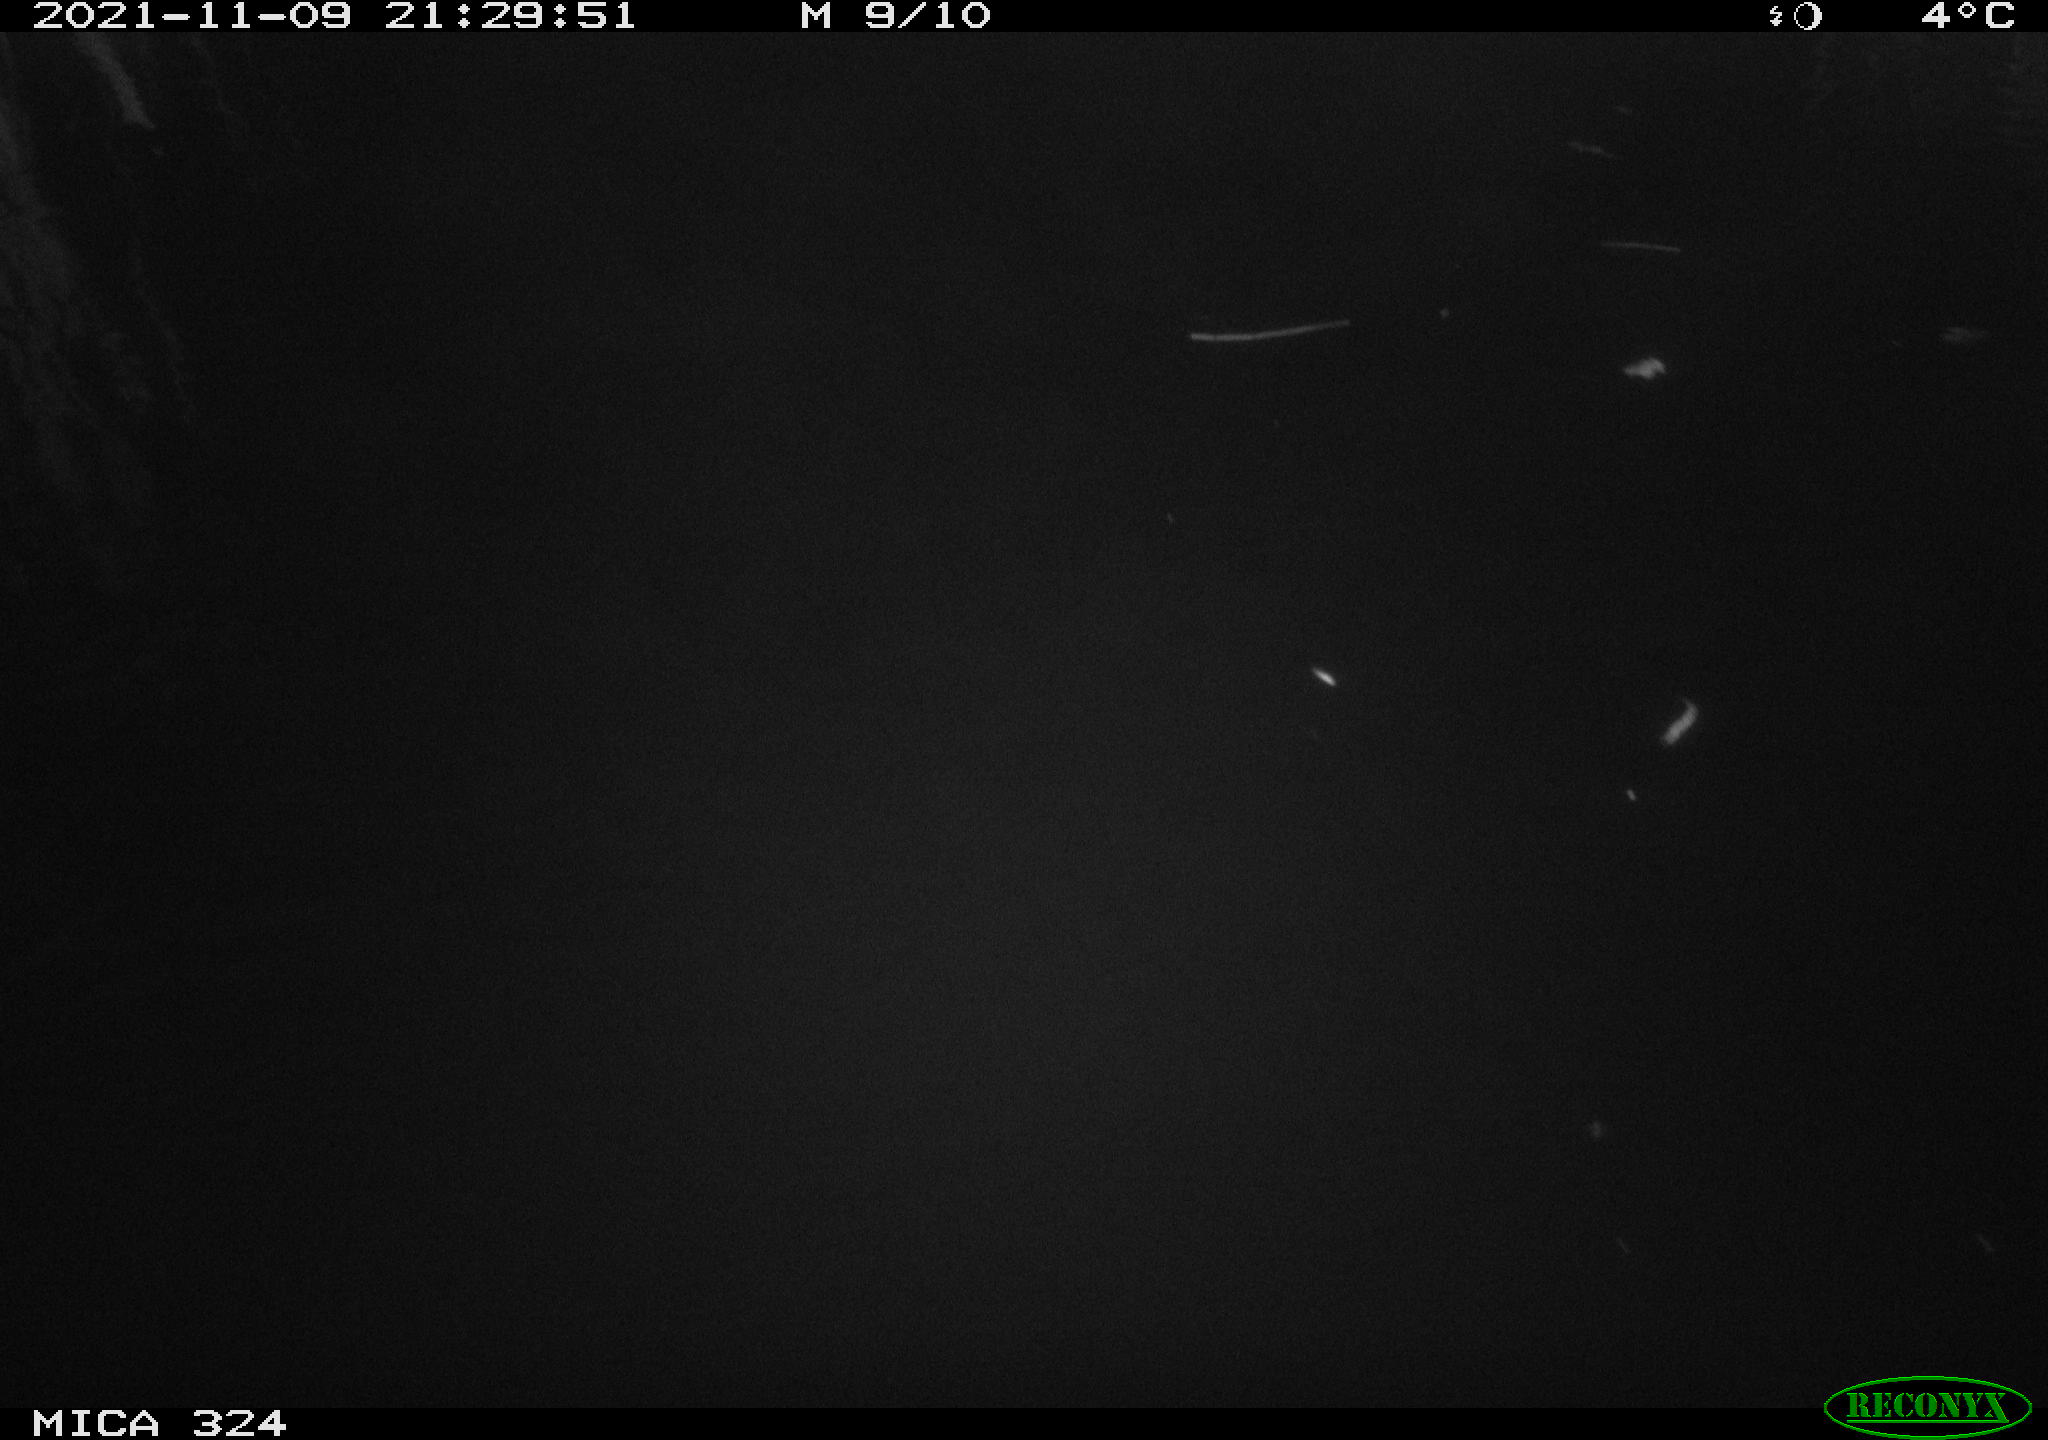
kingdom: Animalia
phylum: Chordata
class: Mammalia
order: Rodentia
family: Cricetidae
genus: Ondatra
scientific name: Ondatra zibethicus
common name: Muskrat
